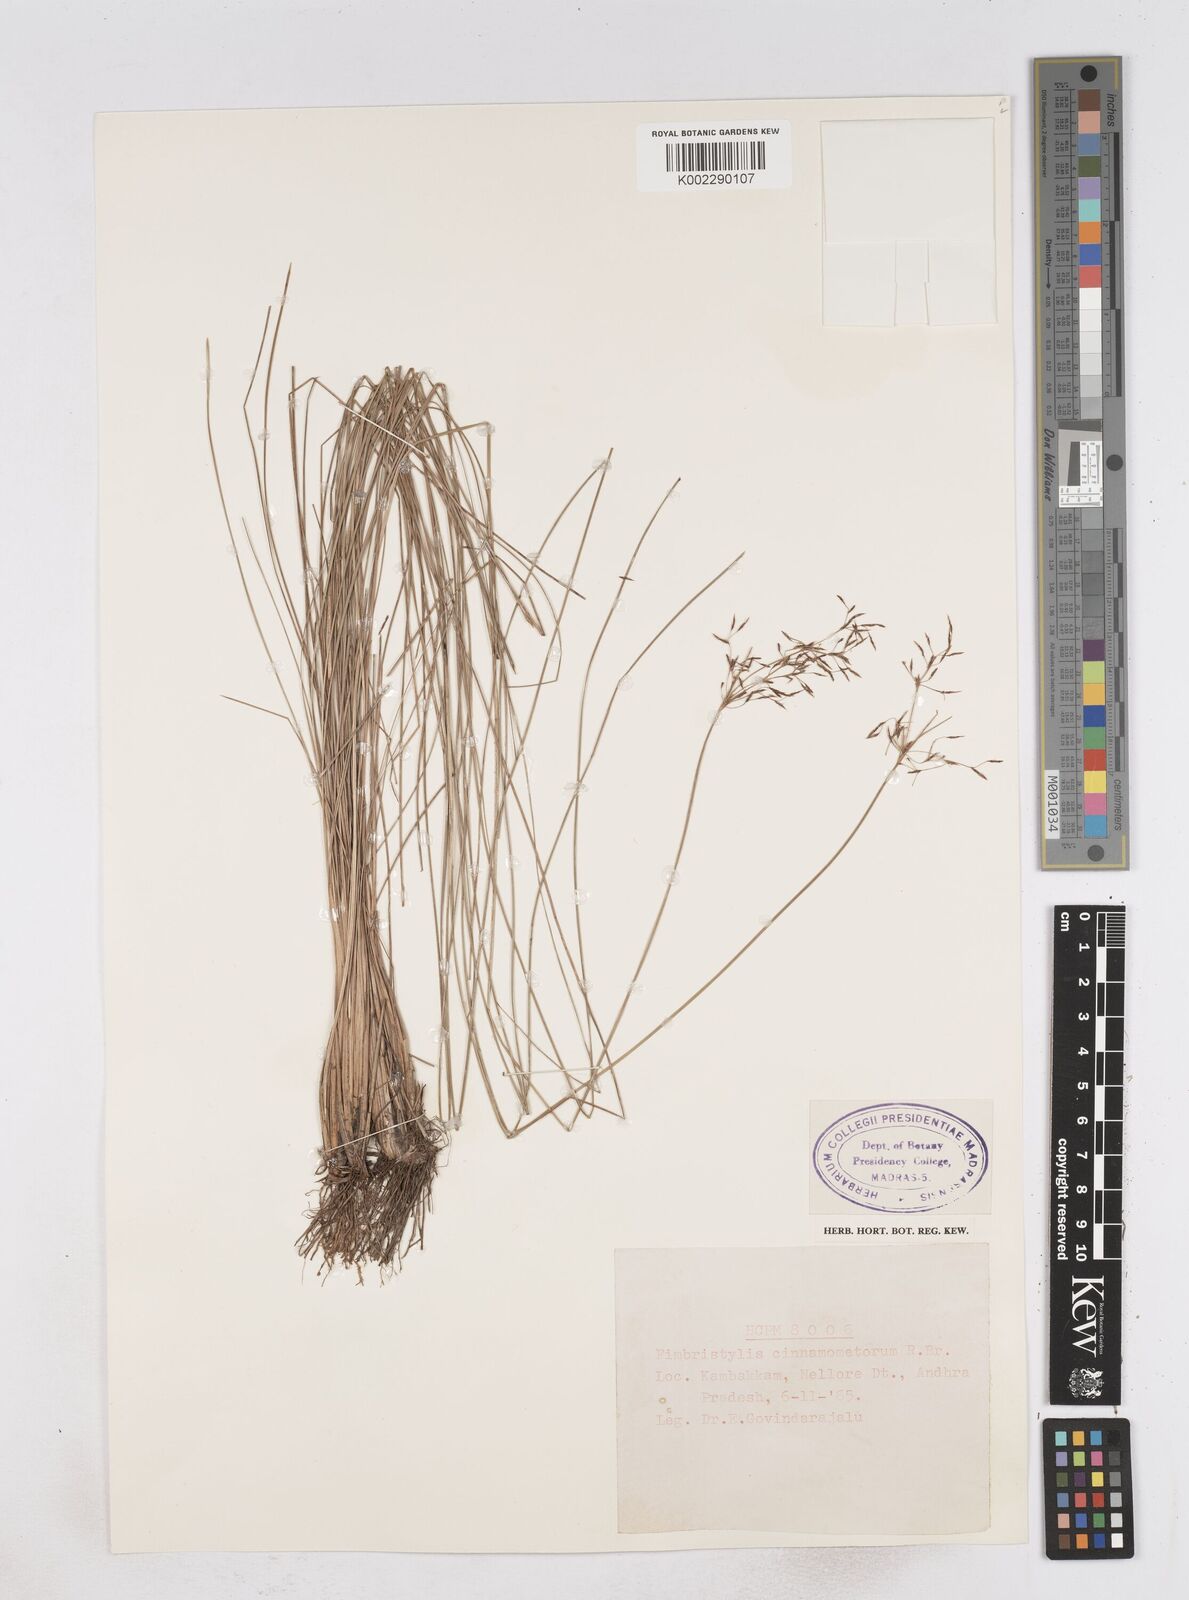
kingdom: Plantae
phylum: Tracheophyta
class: Liliopsida
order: Poales
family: Cyperaceae
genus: Fimbristylis
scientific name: Fimbristylis cinnamometorum
